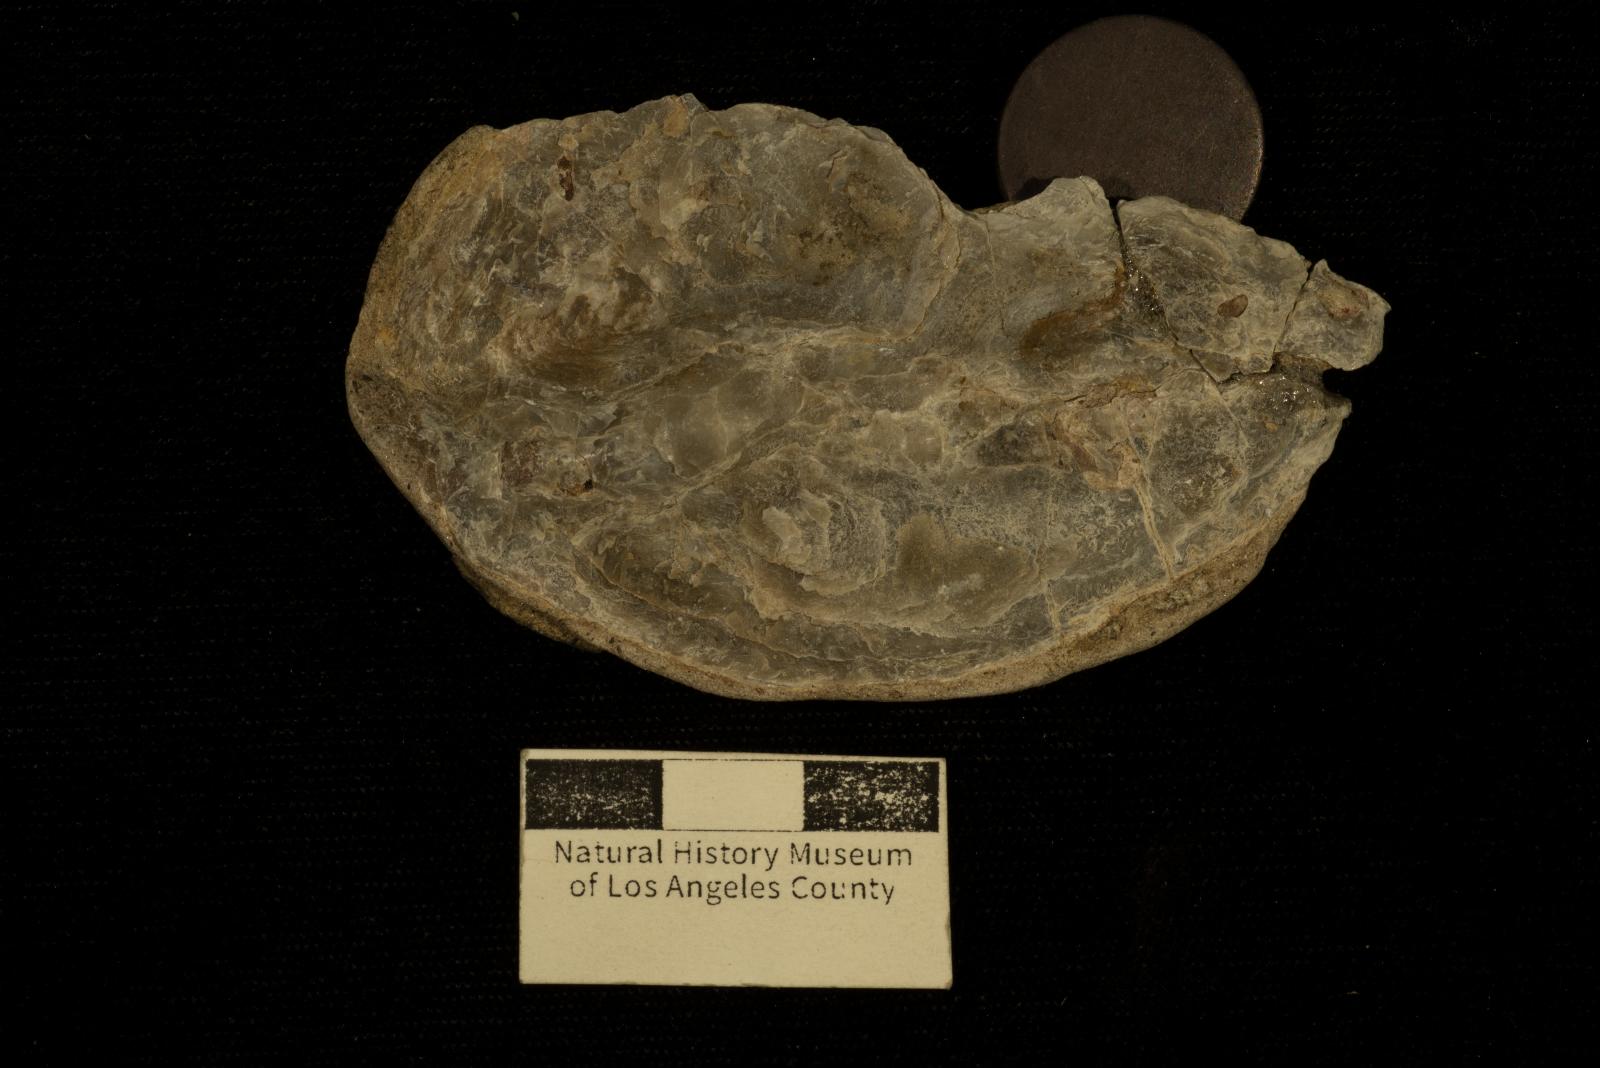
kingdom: Animalia
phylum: Mollusca
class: Bivalvia
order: Ostreida
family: Ostreidae
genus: Acutostrea
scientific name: Acutostrea
